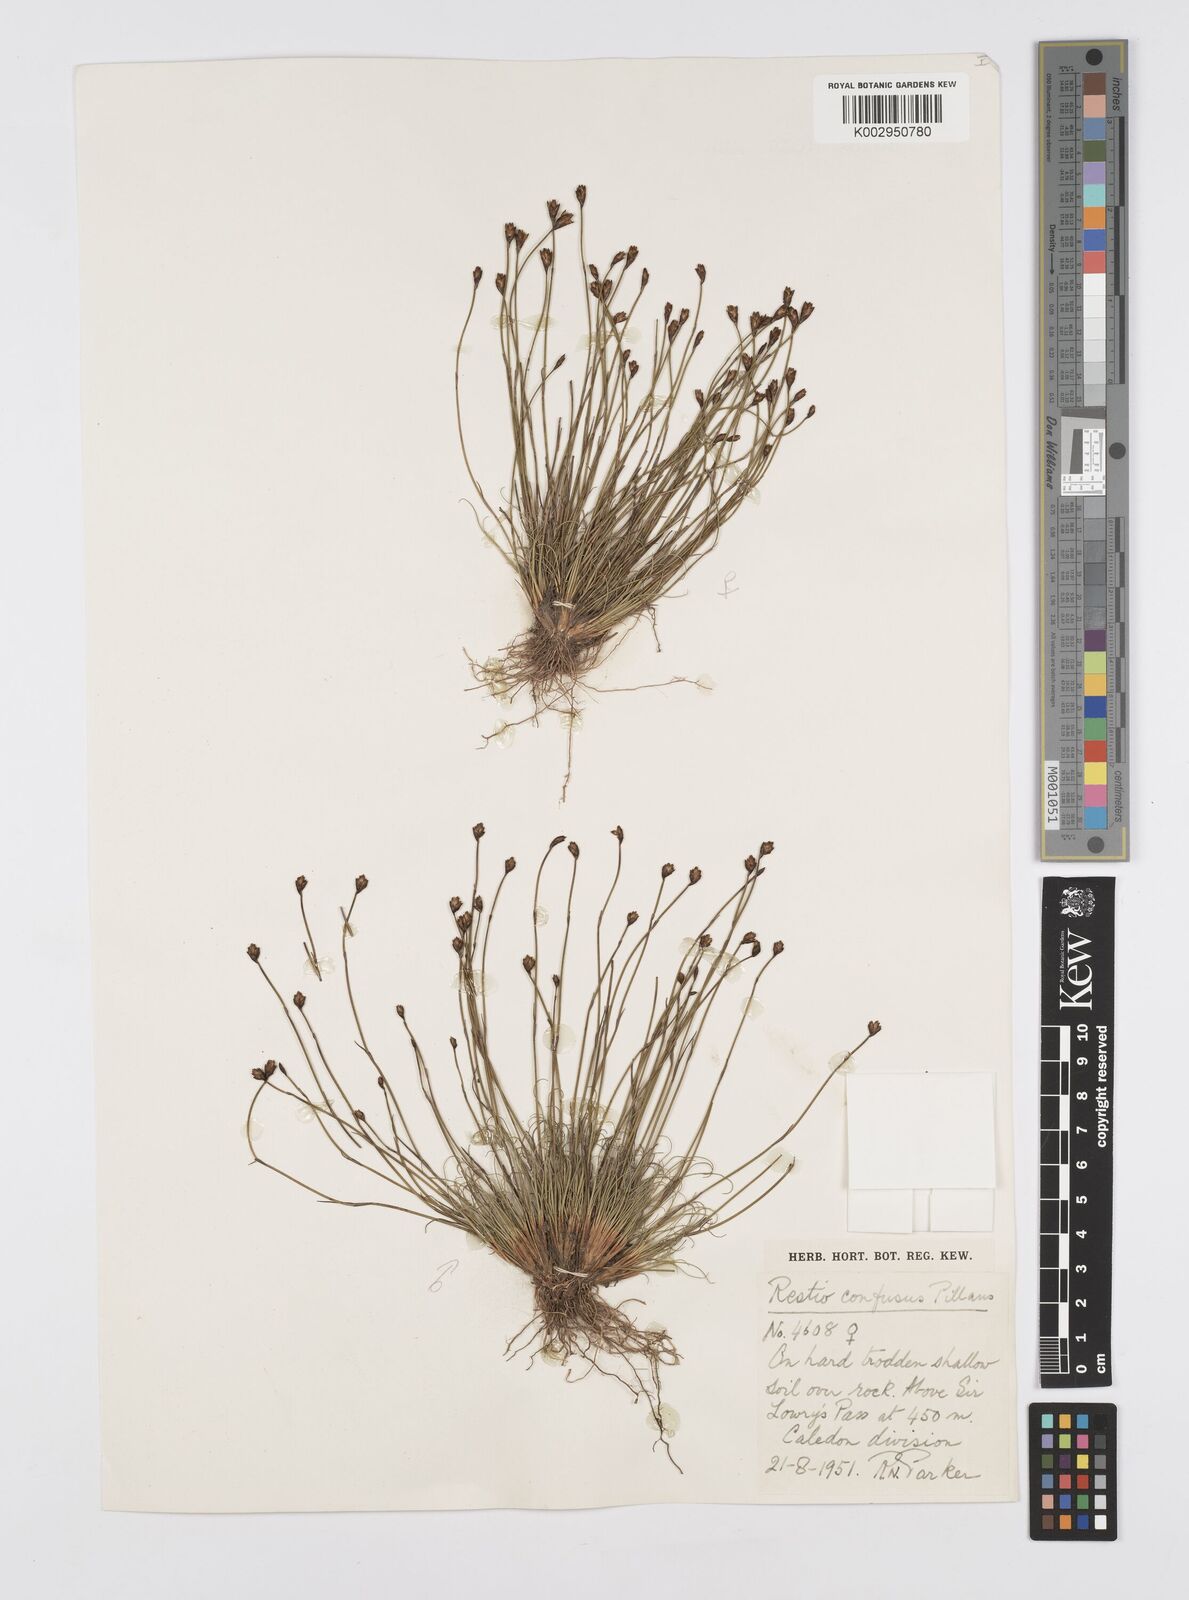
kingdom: Plantae
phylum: Tracheophyta
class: Liliopsida
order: Poales
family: Restionaceae
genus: Restio
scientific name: Restio confusus
